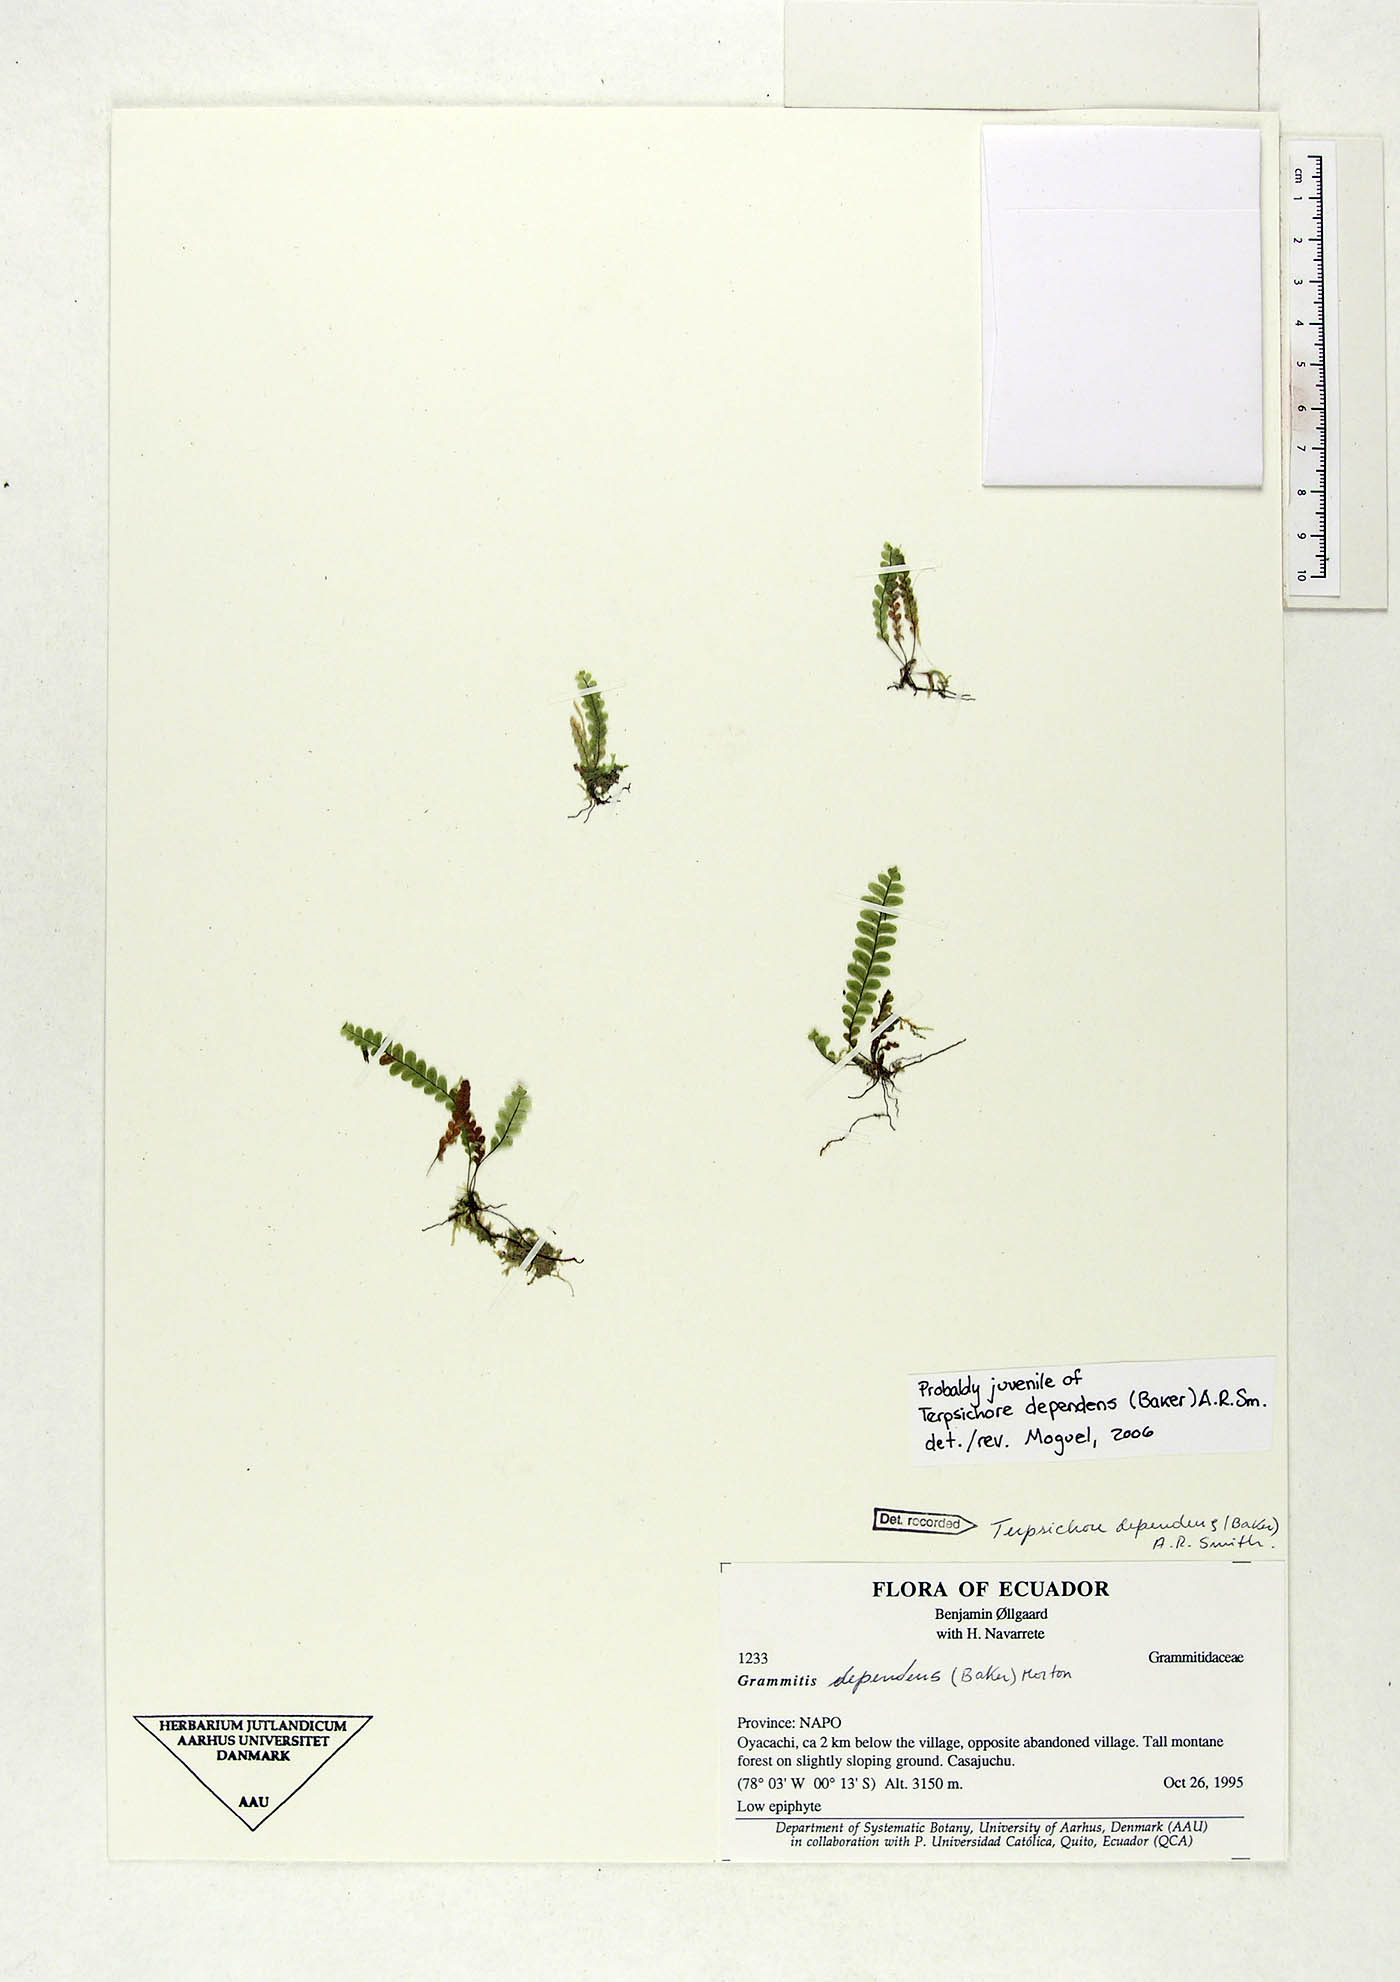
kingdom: Plantae
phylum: Tracheophyta
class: Polypodiopsida
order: Polypodiales
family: Polypodiaceae
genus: Alansmia
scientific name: Alansmia dependens
